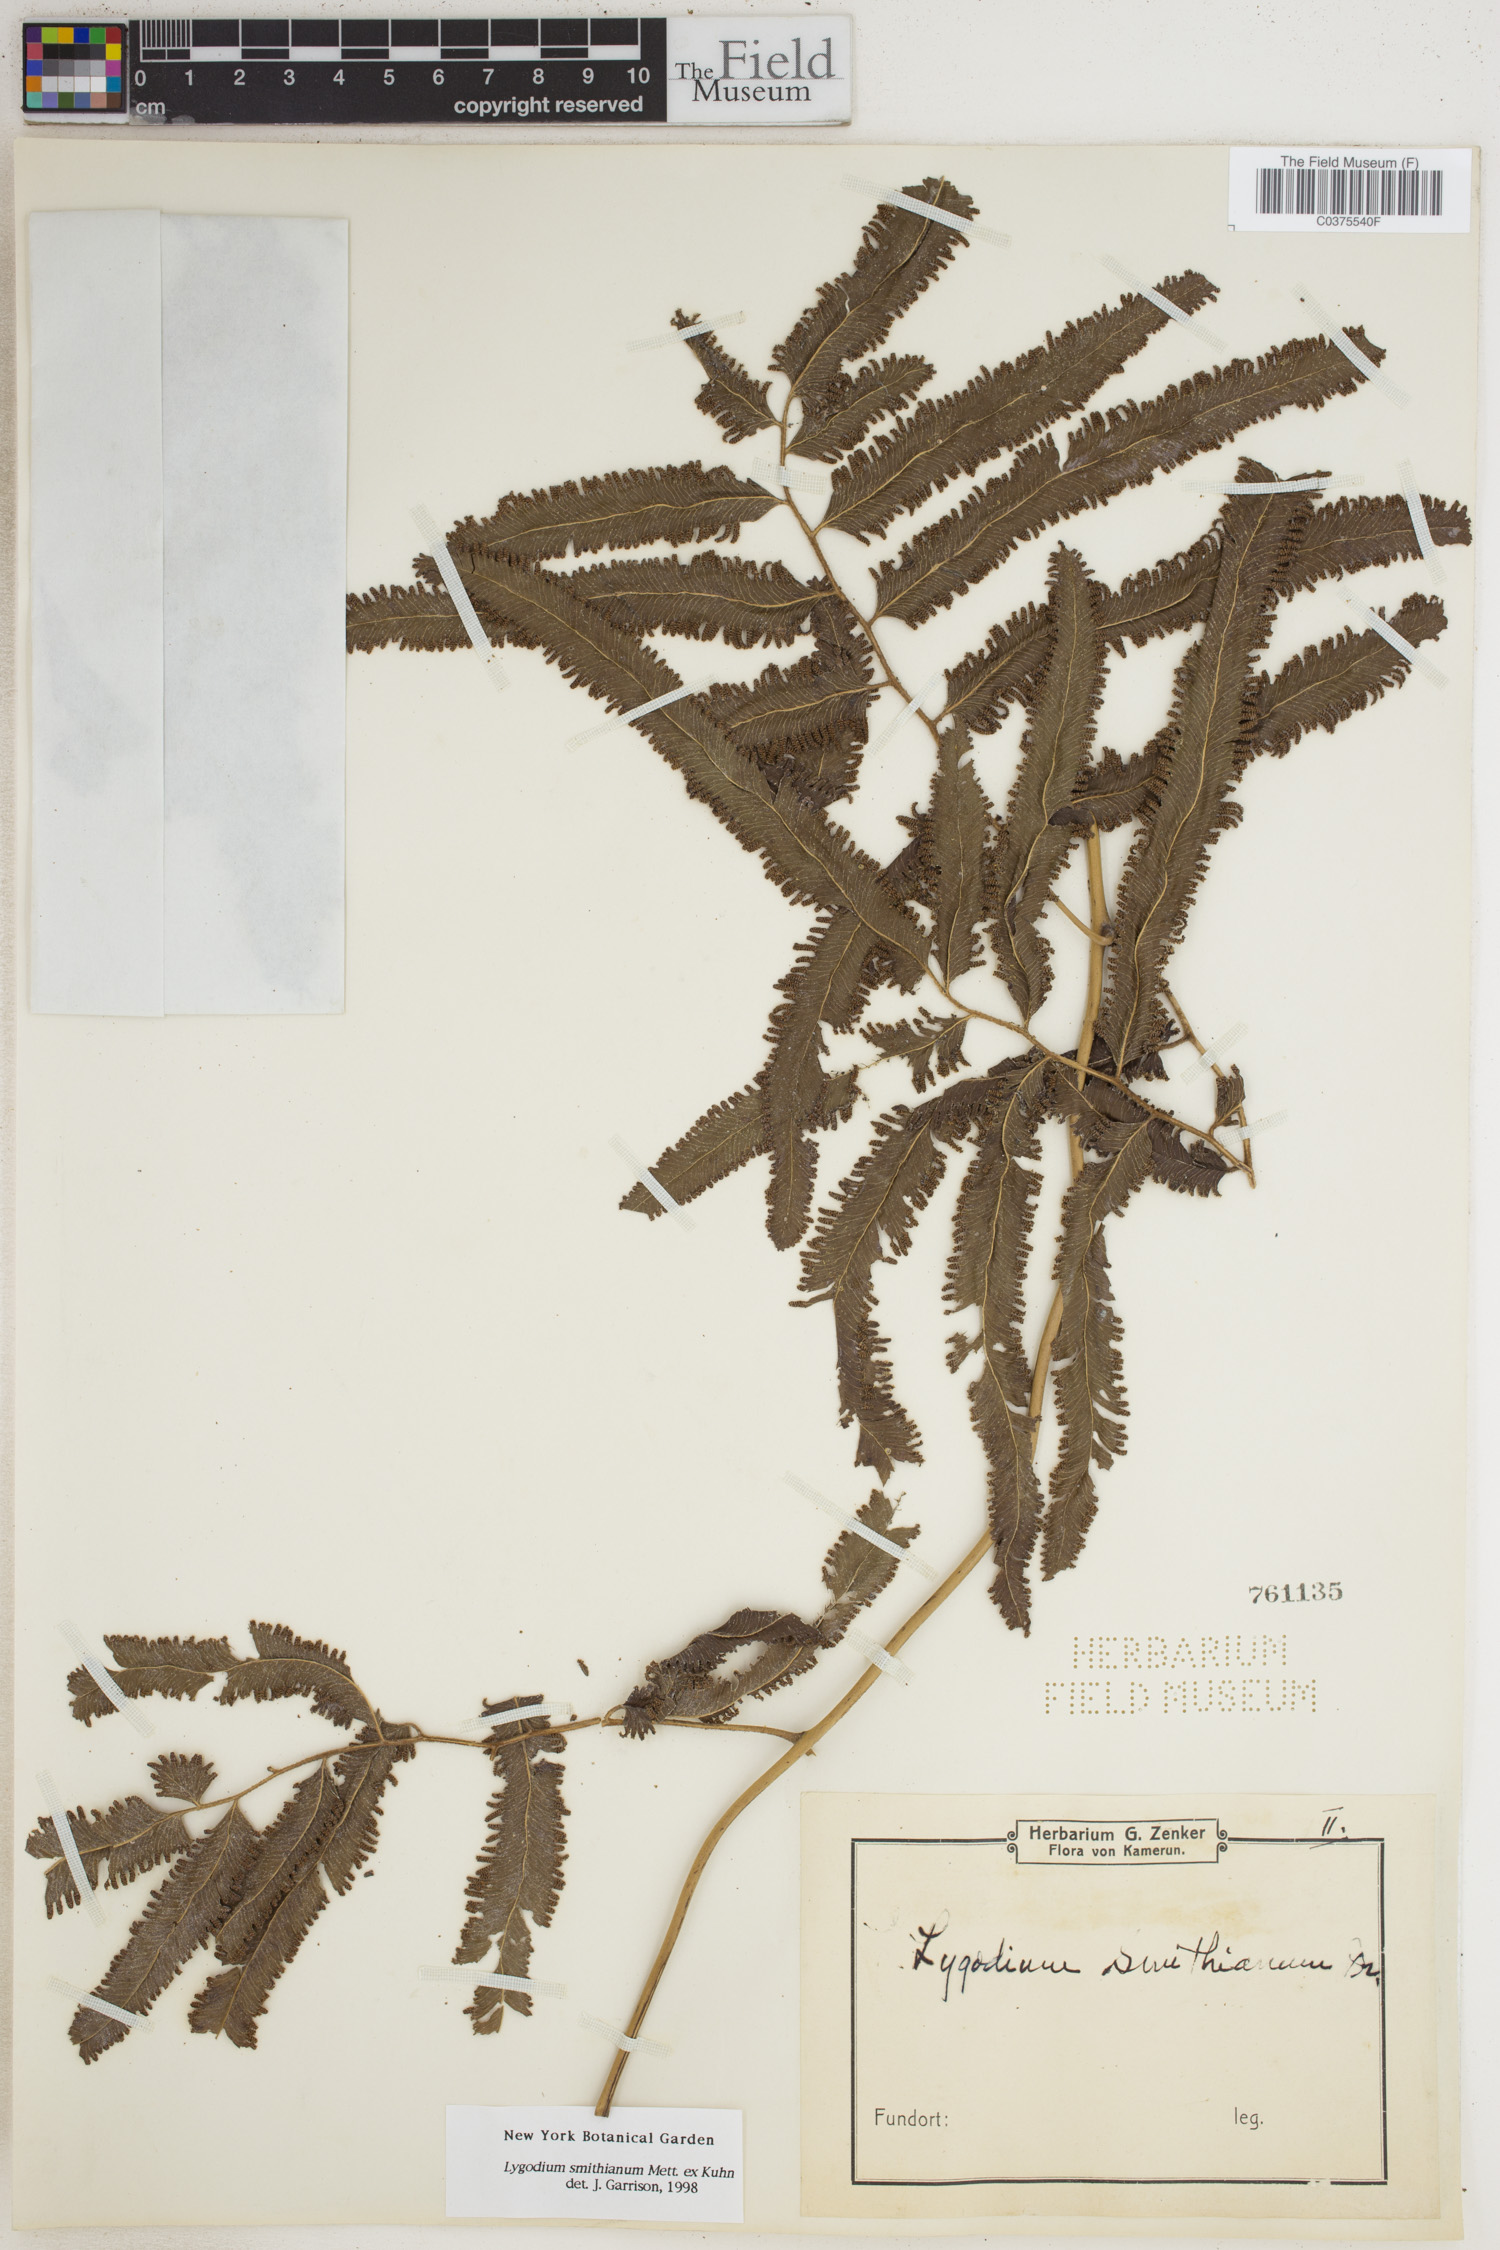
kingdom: Plantae
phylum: Tracheophyta
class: Polypodiopsida
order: Schizaeales
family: Lygodiaceae
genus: Lygodium
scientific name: Lygodium smithianum
